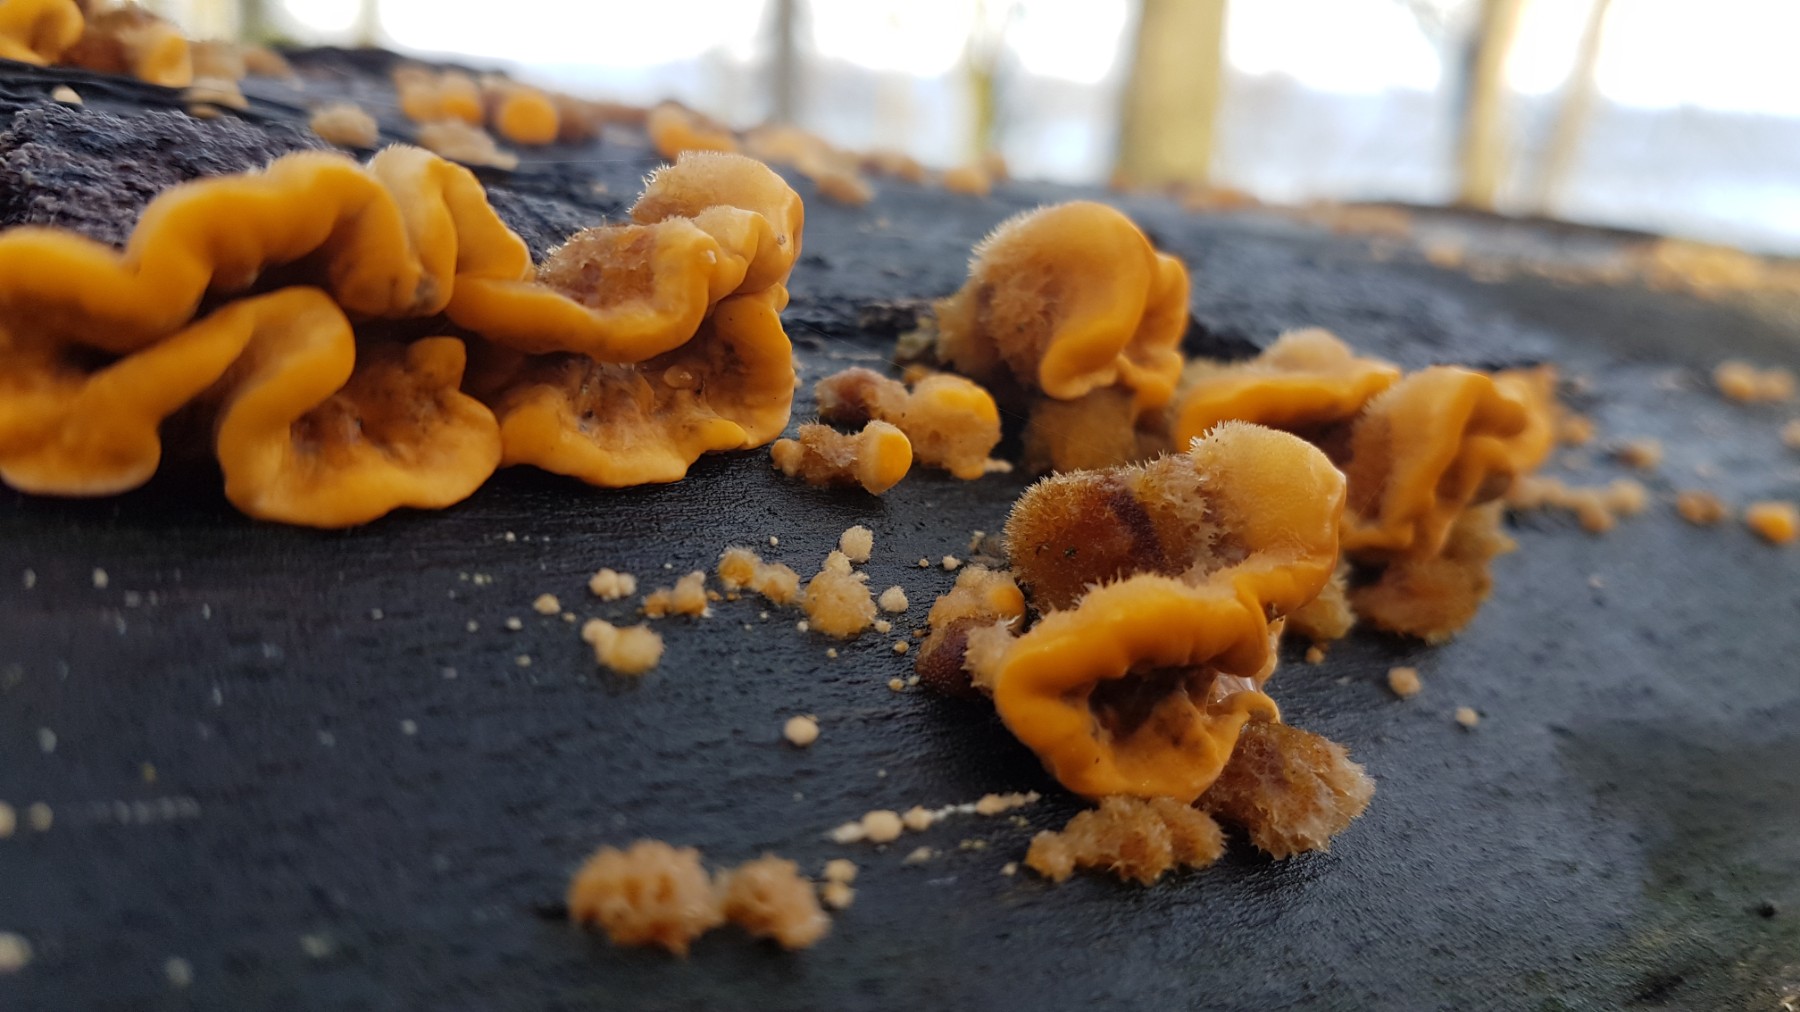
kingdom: Fungi
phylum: Basidiomycota
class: Agaricomycetes
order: Russulales
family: Stereaceae
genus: Stereum
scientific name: Stereum hirsutum
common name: håret lædersvamp
